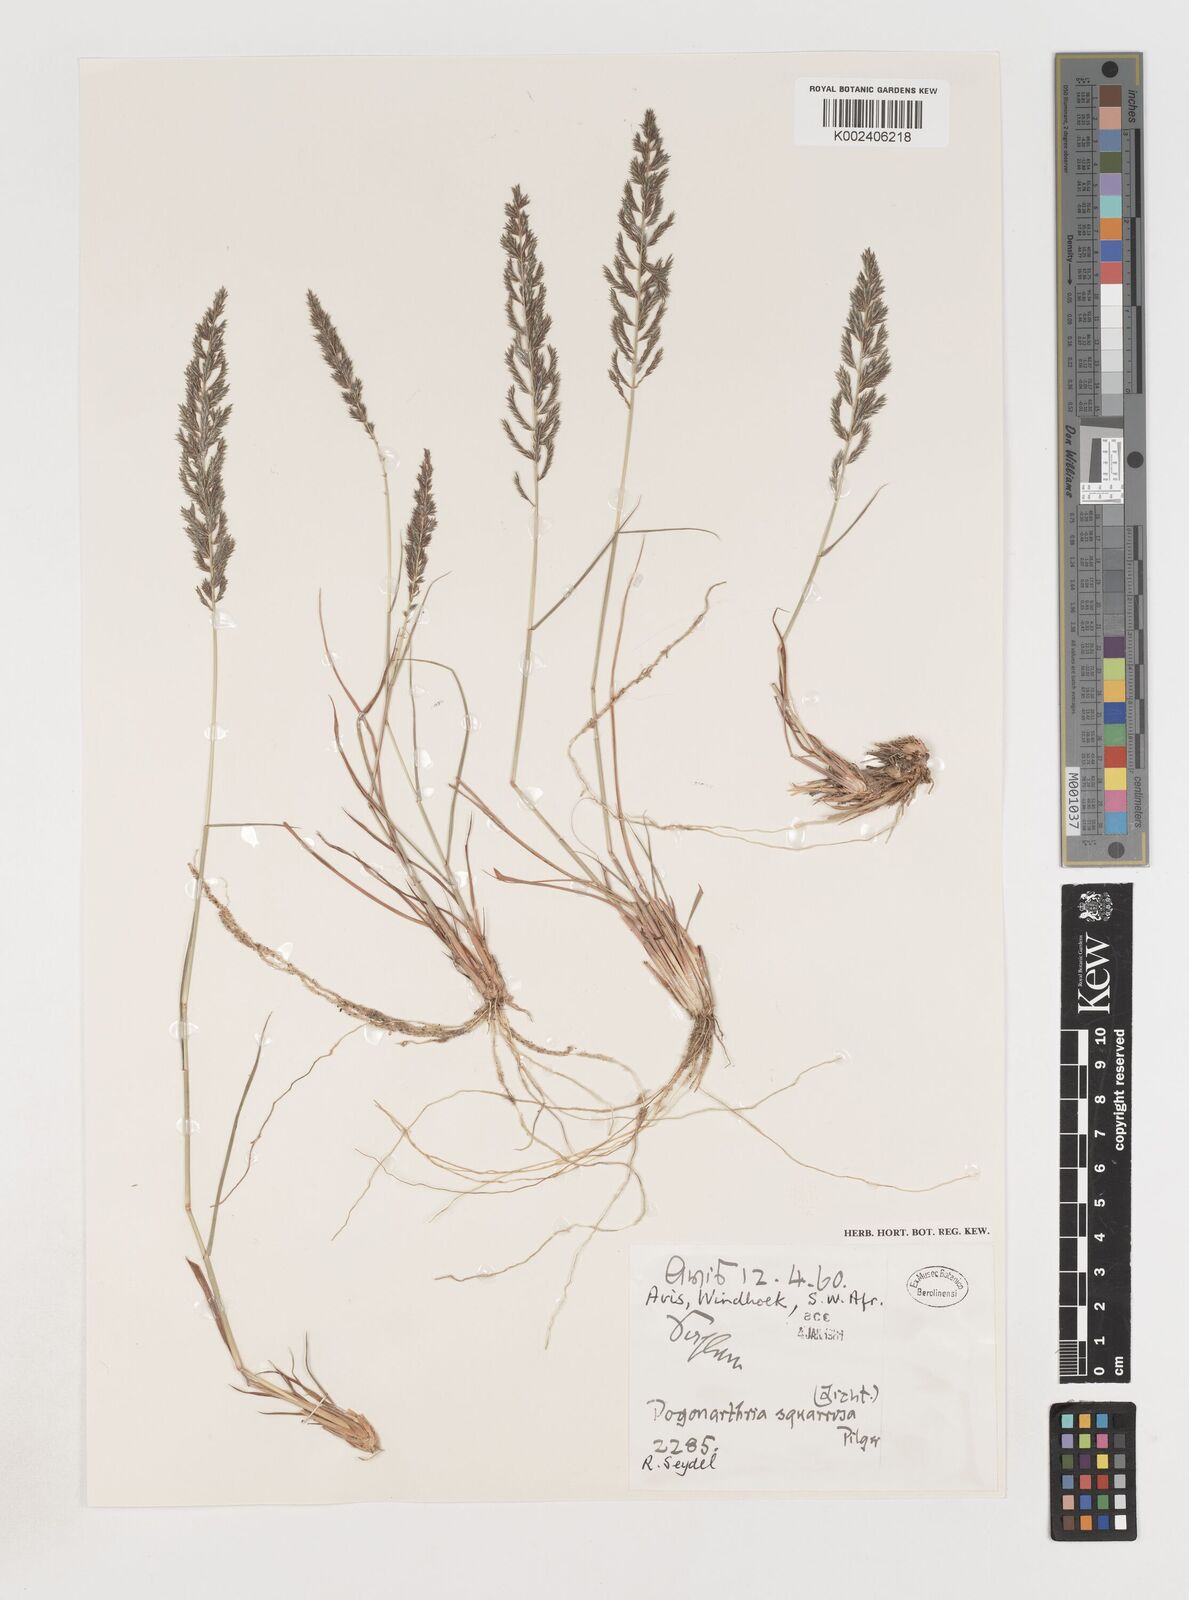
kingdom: Plantae
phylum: Tracheophyta
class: Liliopsida
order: Poales
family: Poaceae
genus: Pogonarthria
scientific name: Pogonarthria squarrosa
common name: Grass
